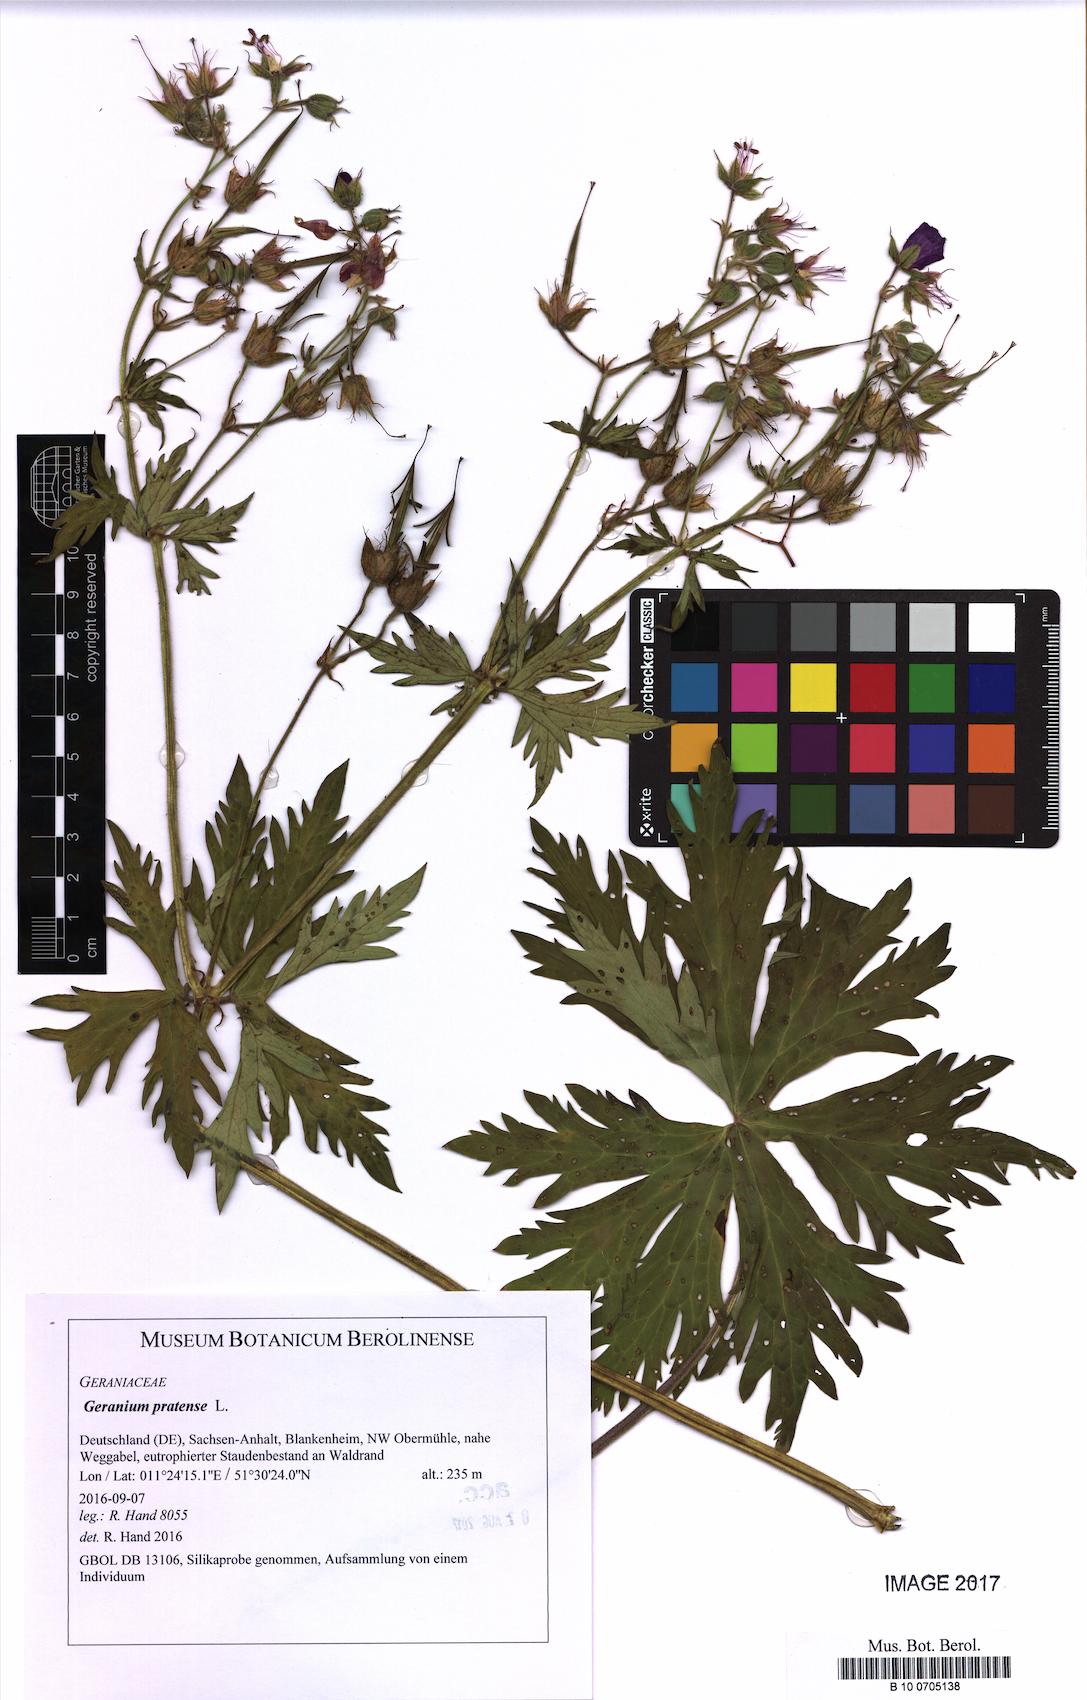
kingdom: Plantae
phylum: Tracheophyta
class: Magnoliopsida
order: Geraniales
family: Geraniaceae
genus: Geranium
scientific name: Geranium pratense
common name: Meadow crane's-bill
